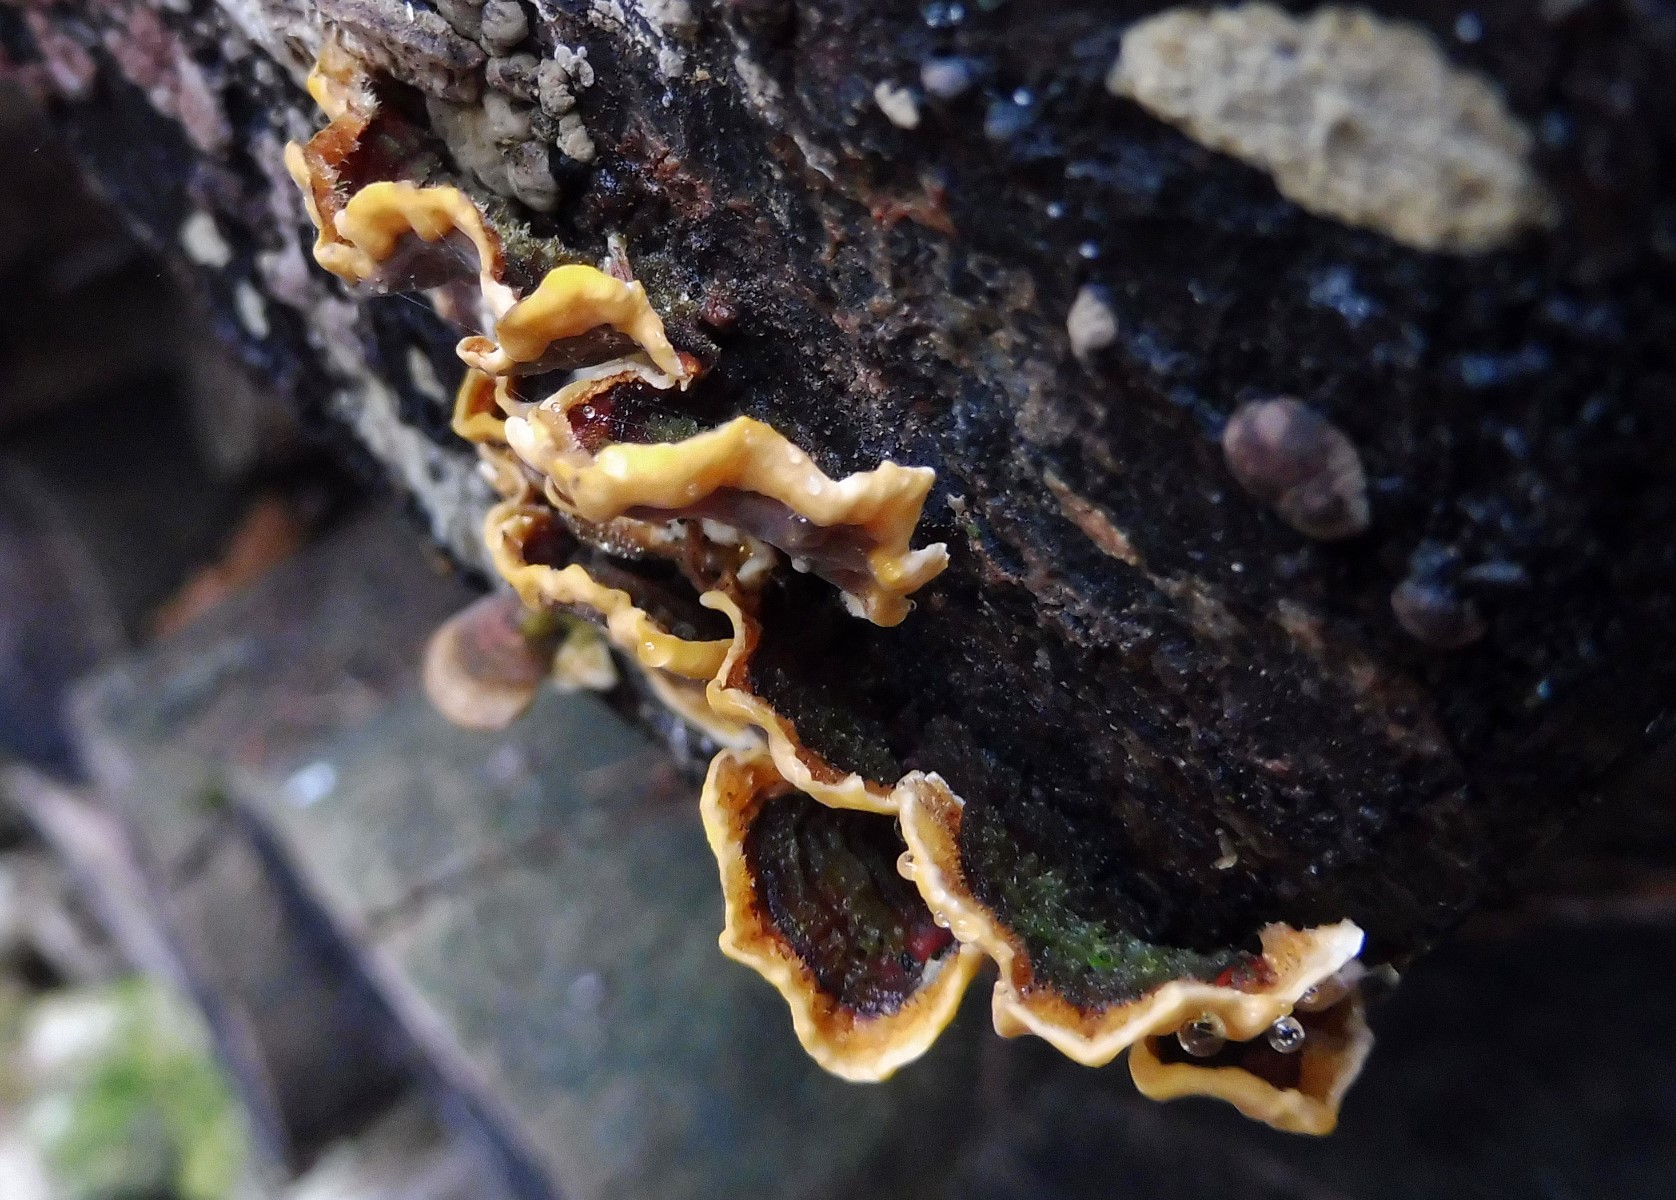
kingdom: Fungi
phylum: Basidiomycota
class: Agaricomycetes
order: Russulales
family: Stereaceae
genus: Stereum
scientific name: Stereum hirsutum
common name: håret lædersvamp
